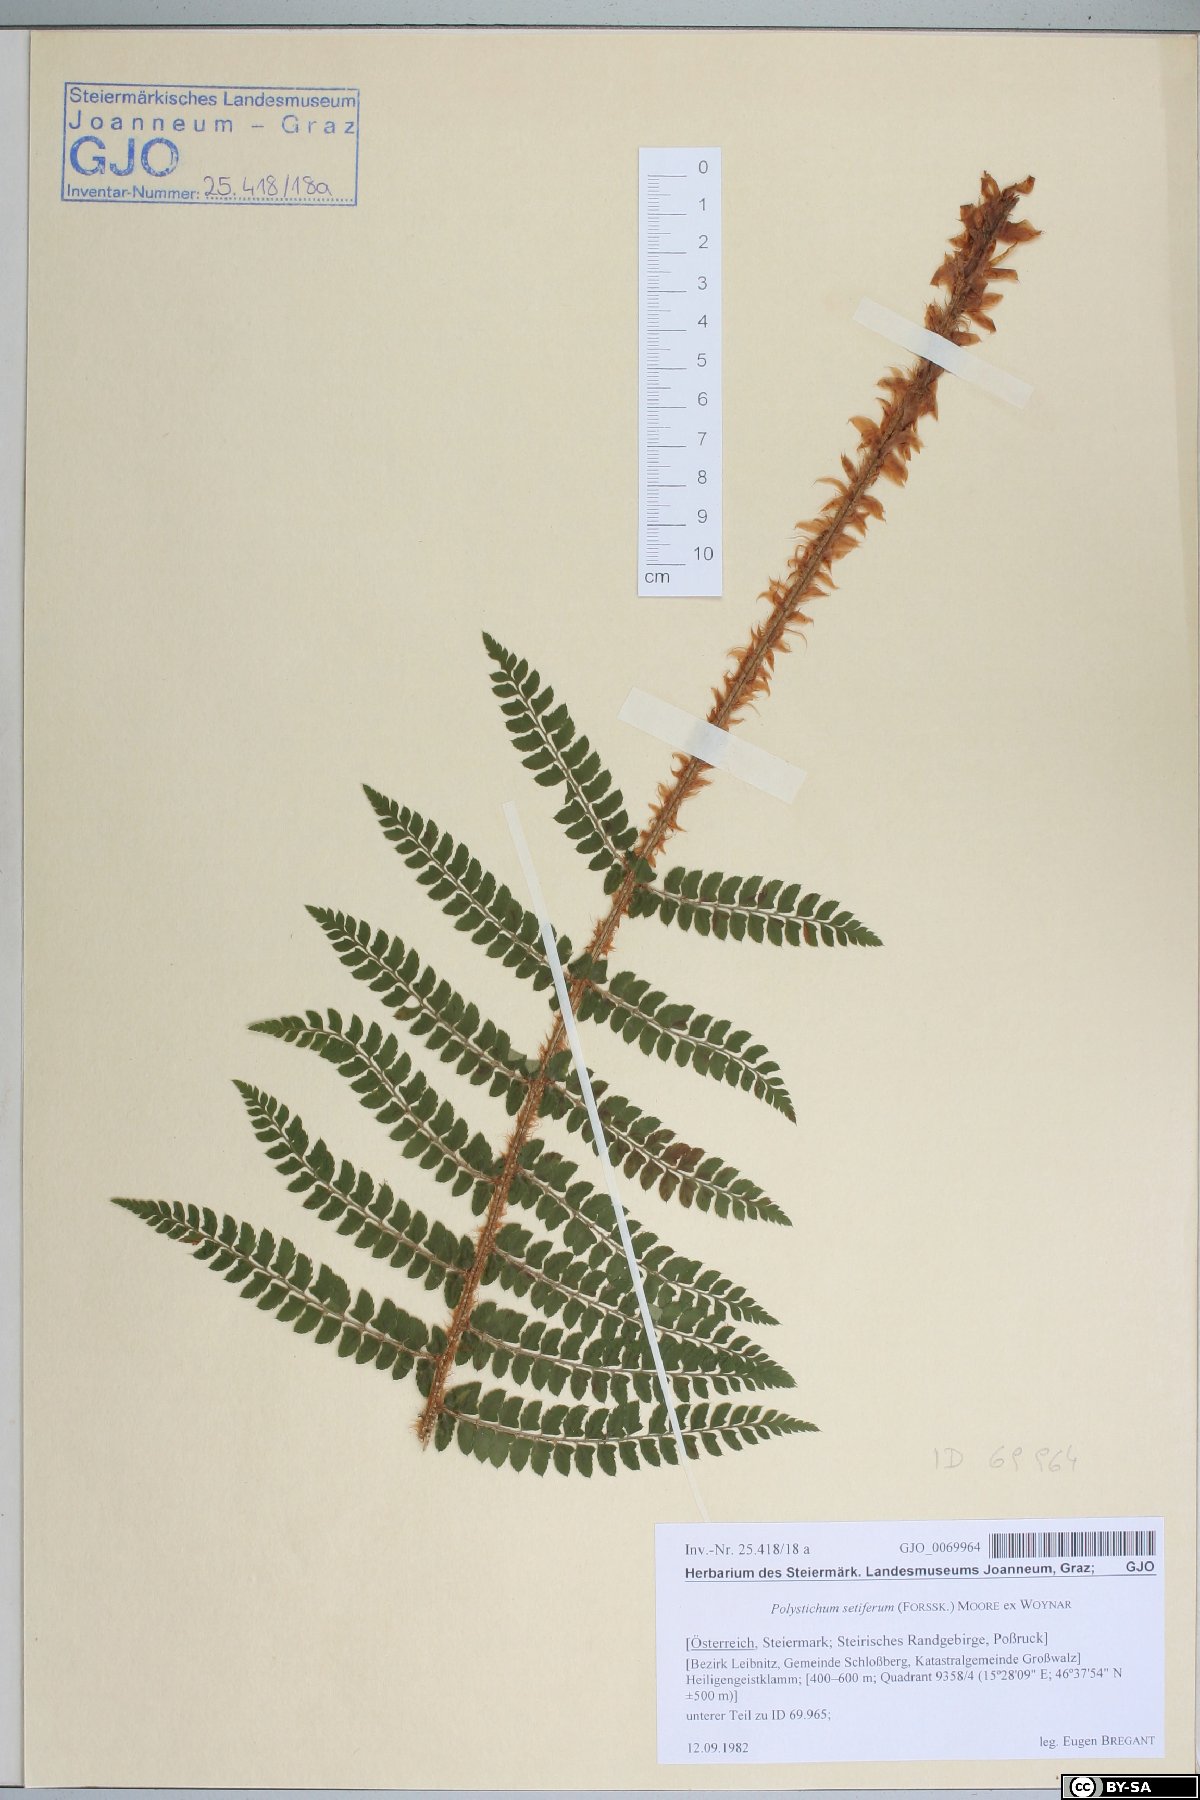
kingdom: Plantae
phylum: Tracheophyta
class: Polypodiopsida
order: Polypodiales
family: Dryopteridaceae
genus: Polystichum
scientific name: Polystichum setiferum
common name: Soft shield-fern
